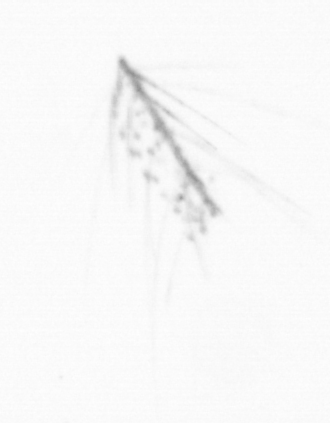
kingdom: Chromista
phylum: Ochrophyta
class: Bacillariophyceae
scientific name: Bacillariophyceae
